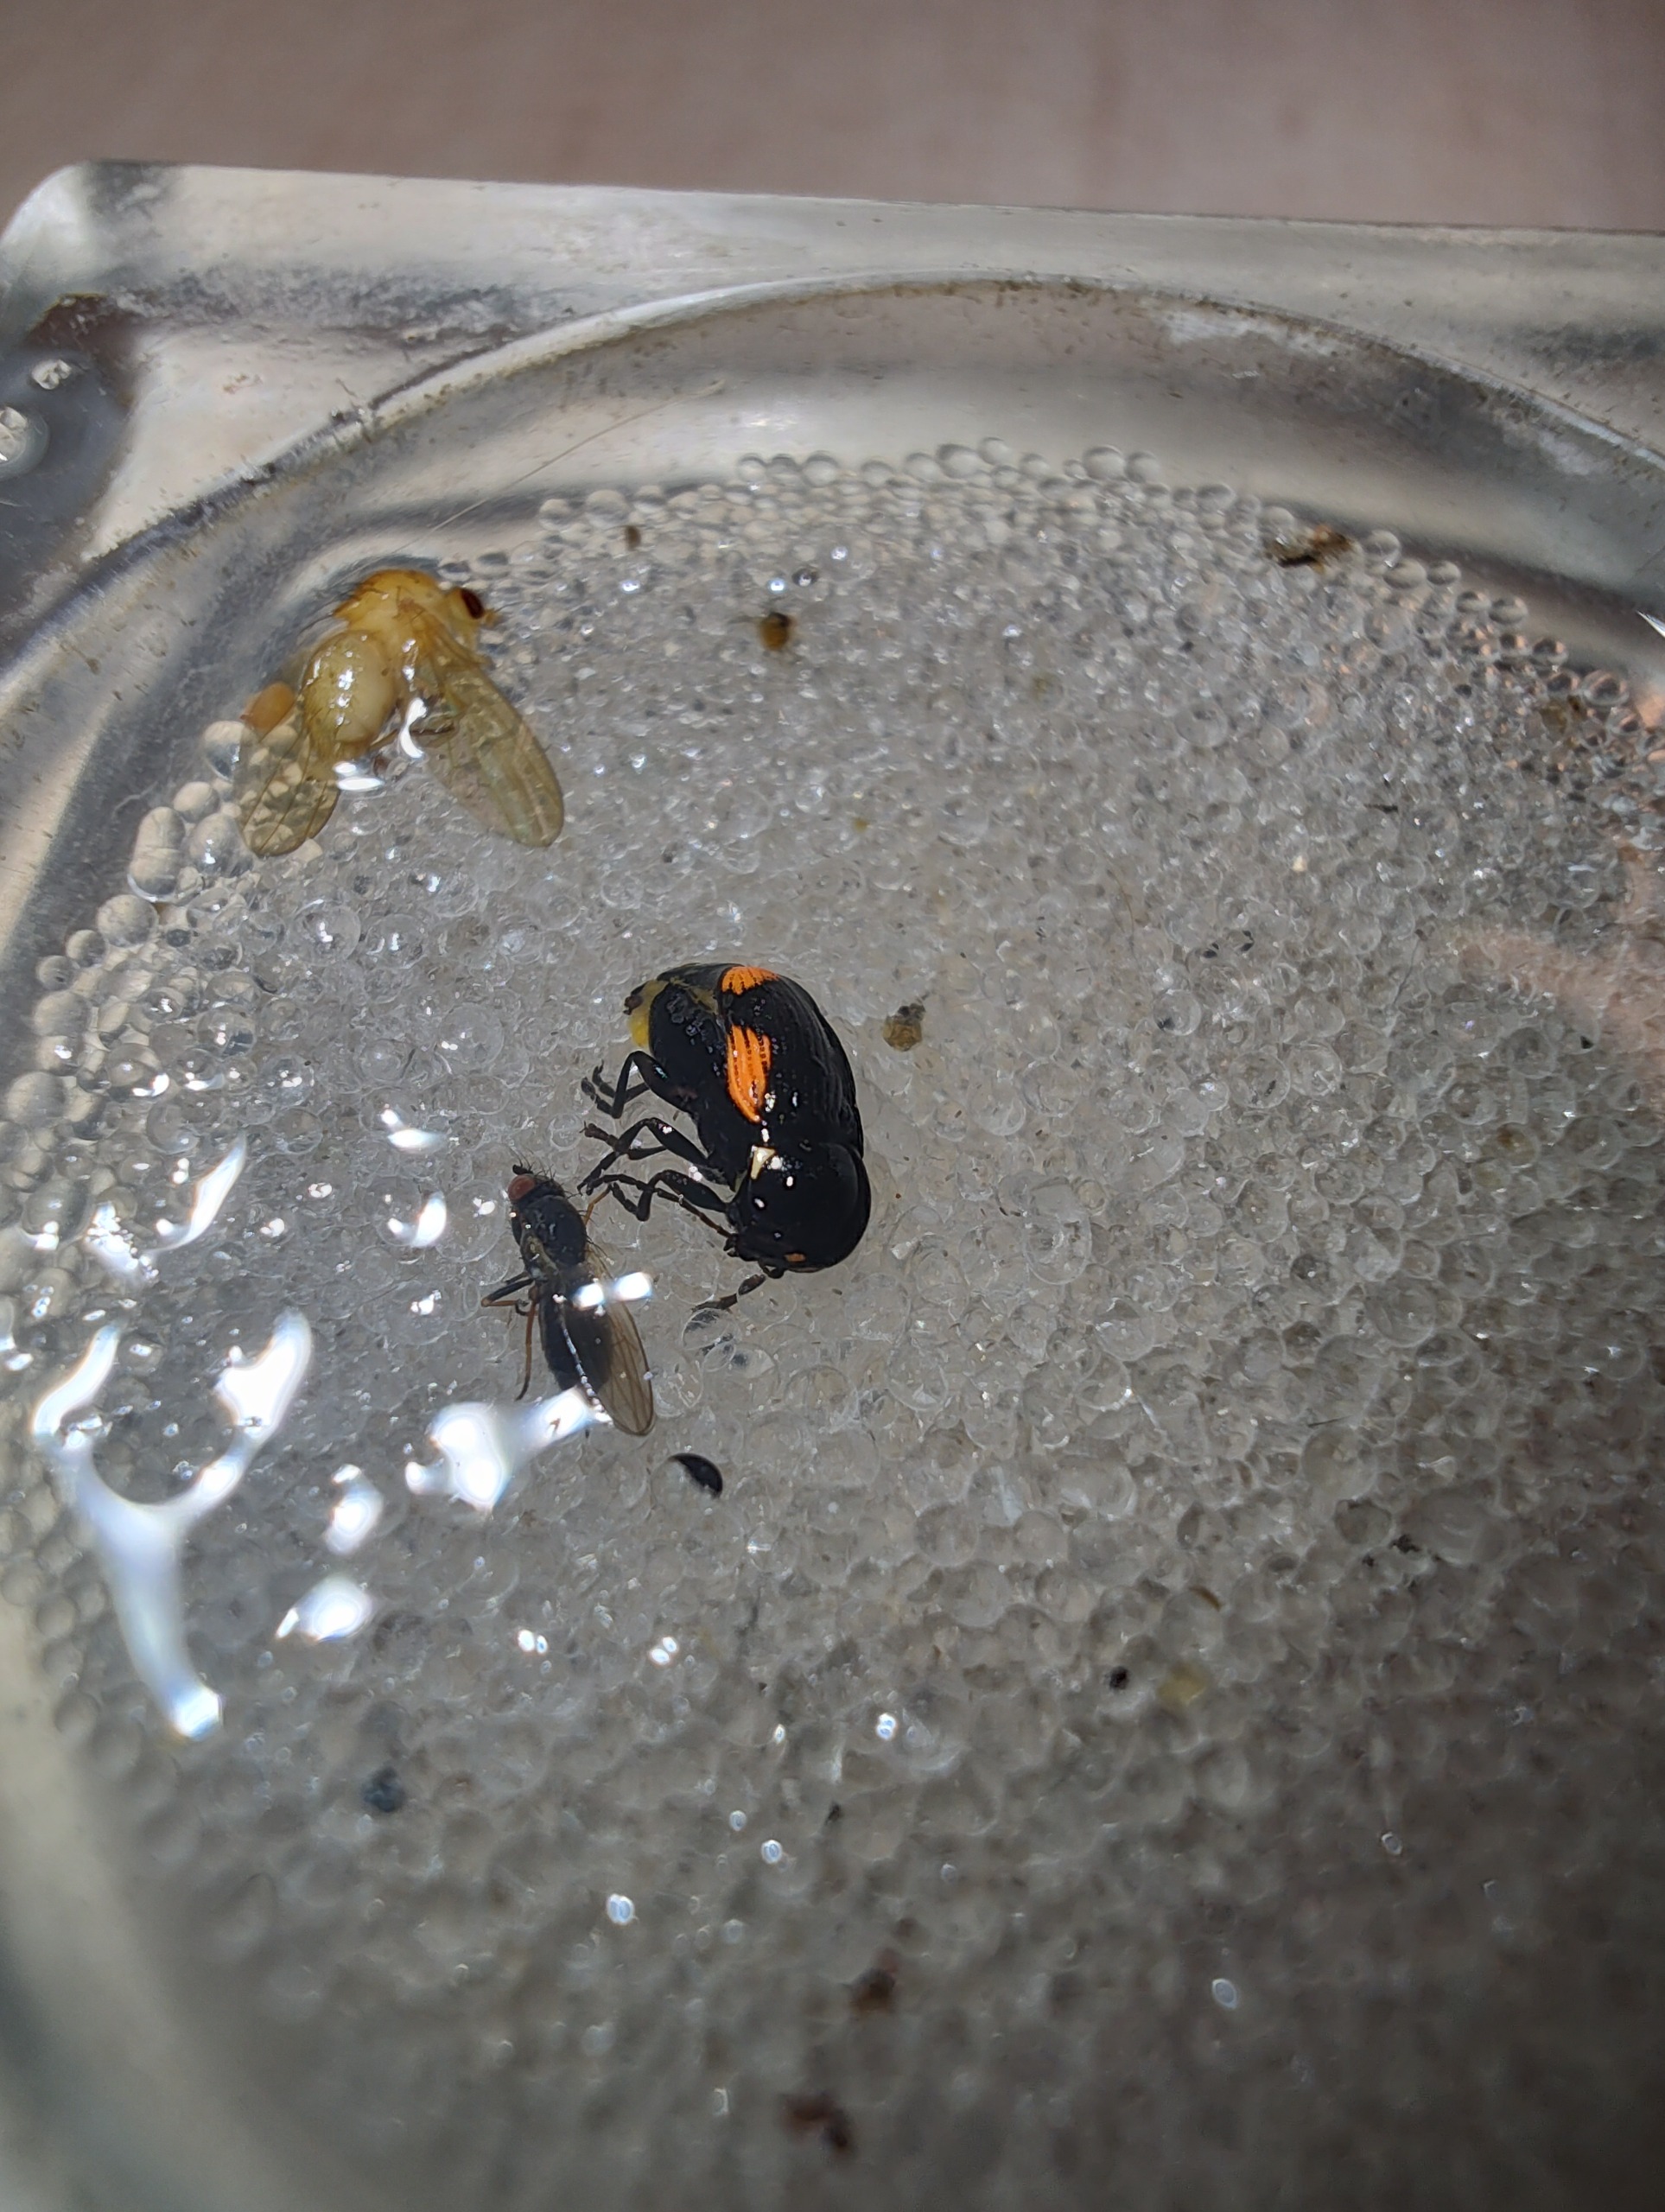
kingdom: Animalia
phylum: Arthropoda
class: Insecta
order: Coleoptera
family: Chrysomelidae
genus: Cryptocephalus
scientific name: Cryptocephalus moraei
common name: Perikonfaldbille
